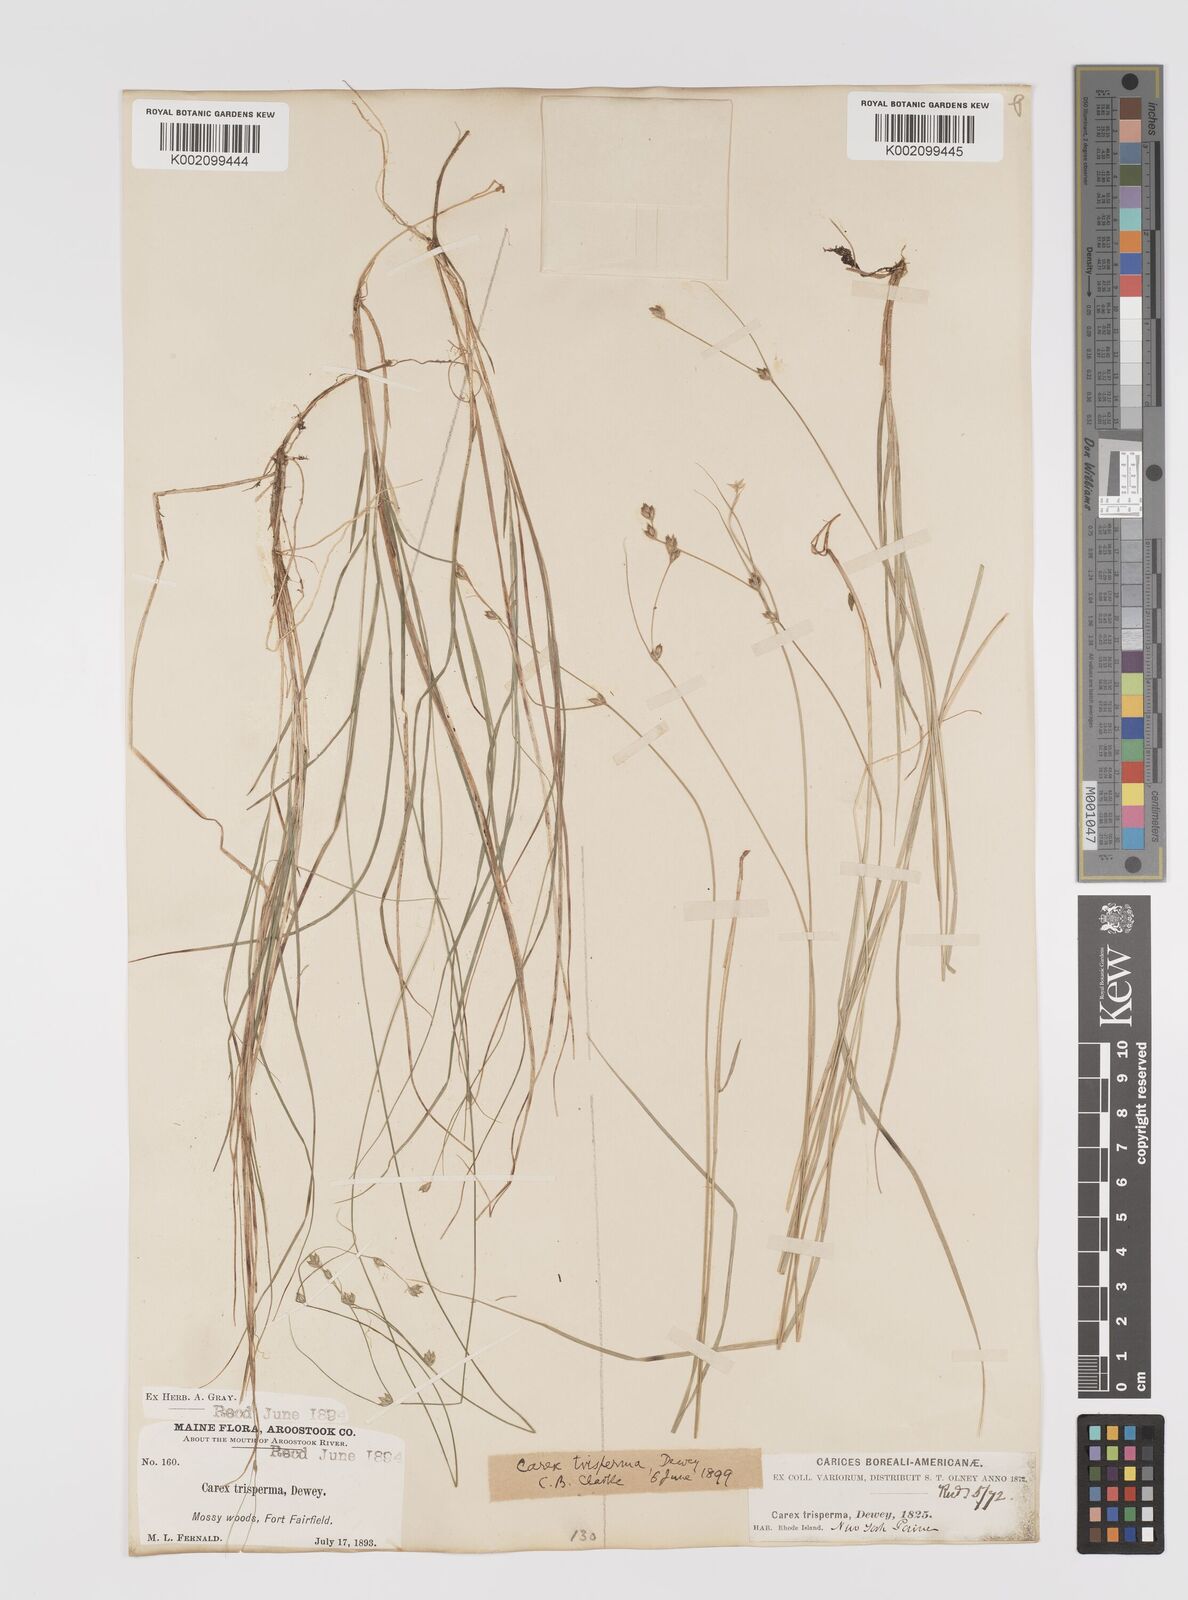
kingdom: Plantae
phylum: Tracheophyta
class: Liliopsida
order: Poales
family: Cyperaceae
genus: Carex
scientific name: Carex trisperma
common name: Three-seeded sedge
